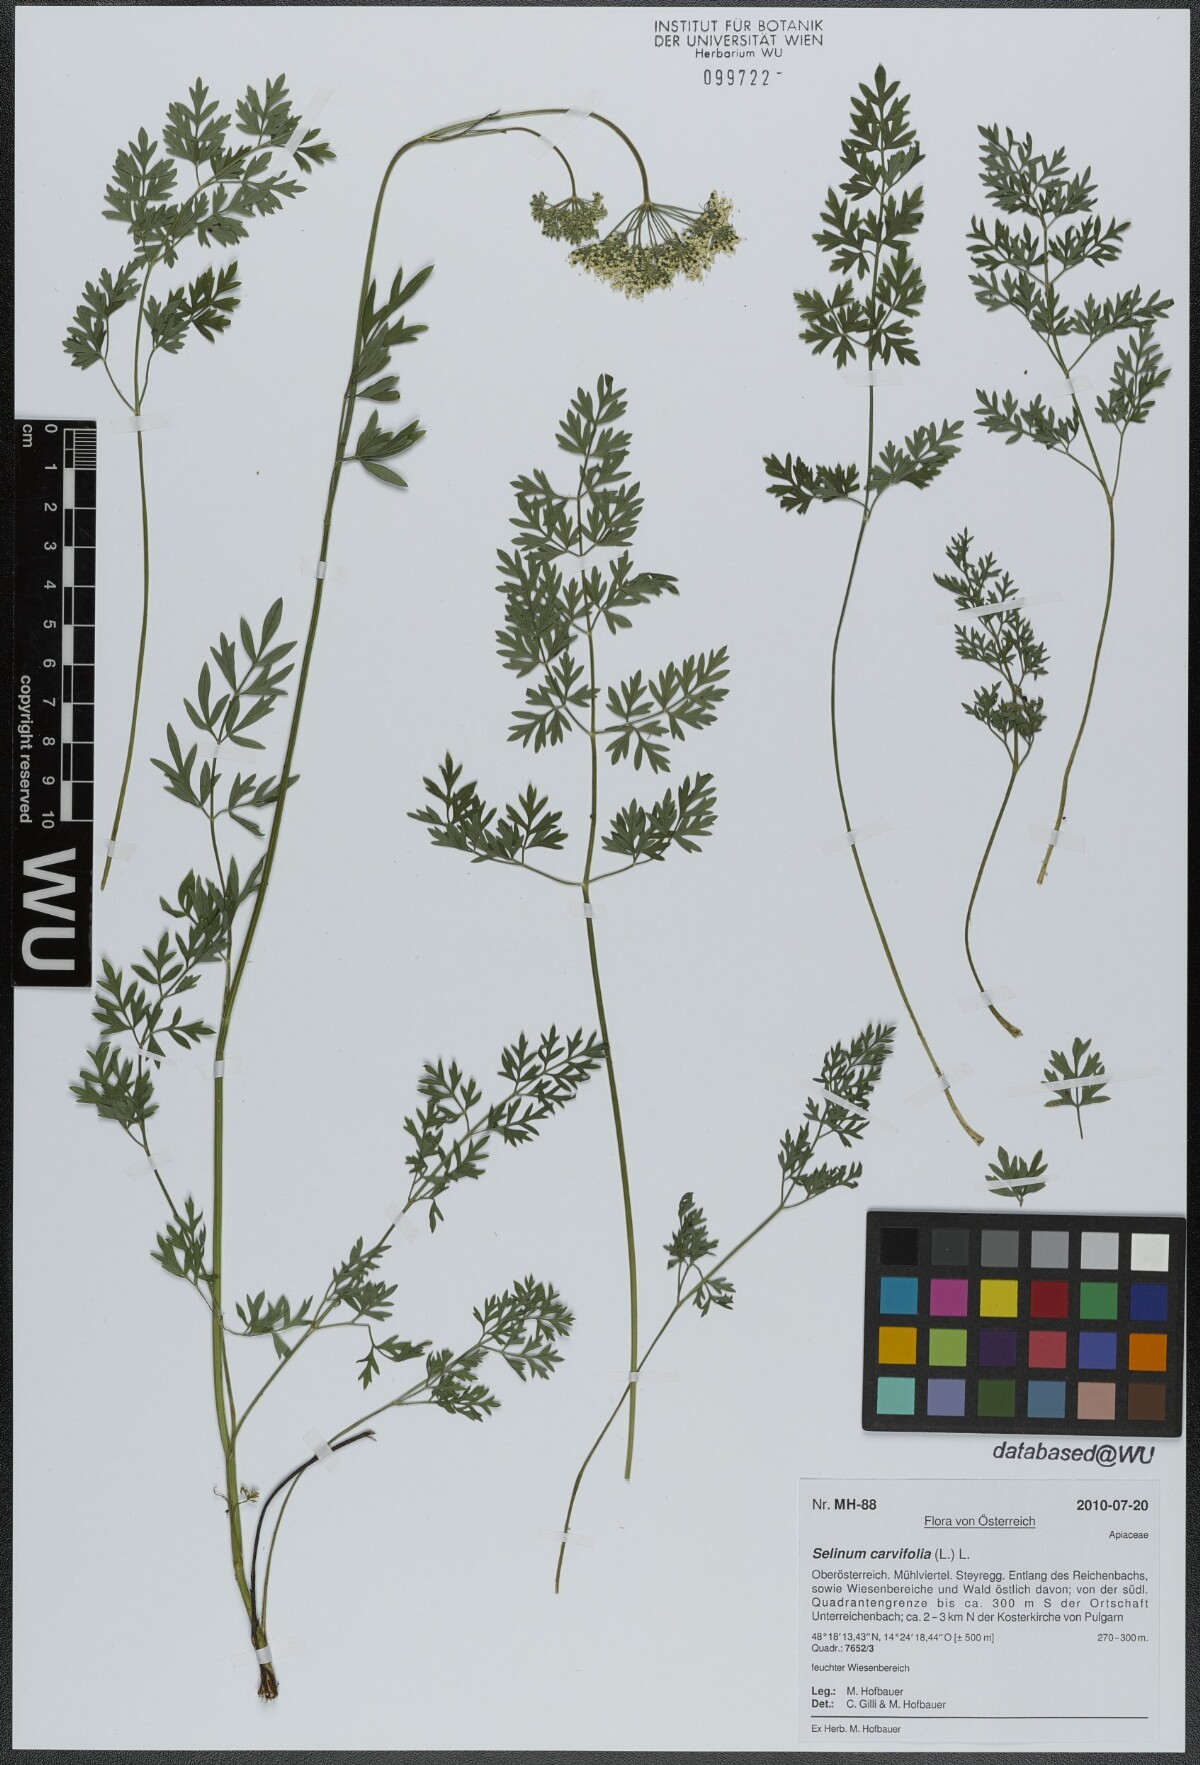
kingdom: Plantae
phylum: Tracheophyta
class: Magnoliopsida
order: Apiales
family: Apiaceae
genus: Selinum
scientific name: Selinum carvifolia
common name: Cambridge milk-parsley
